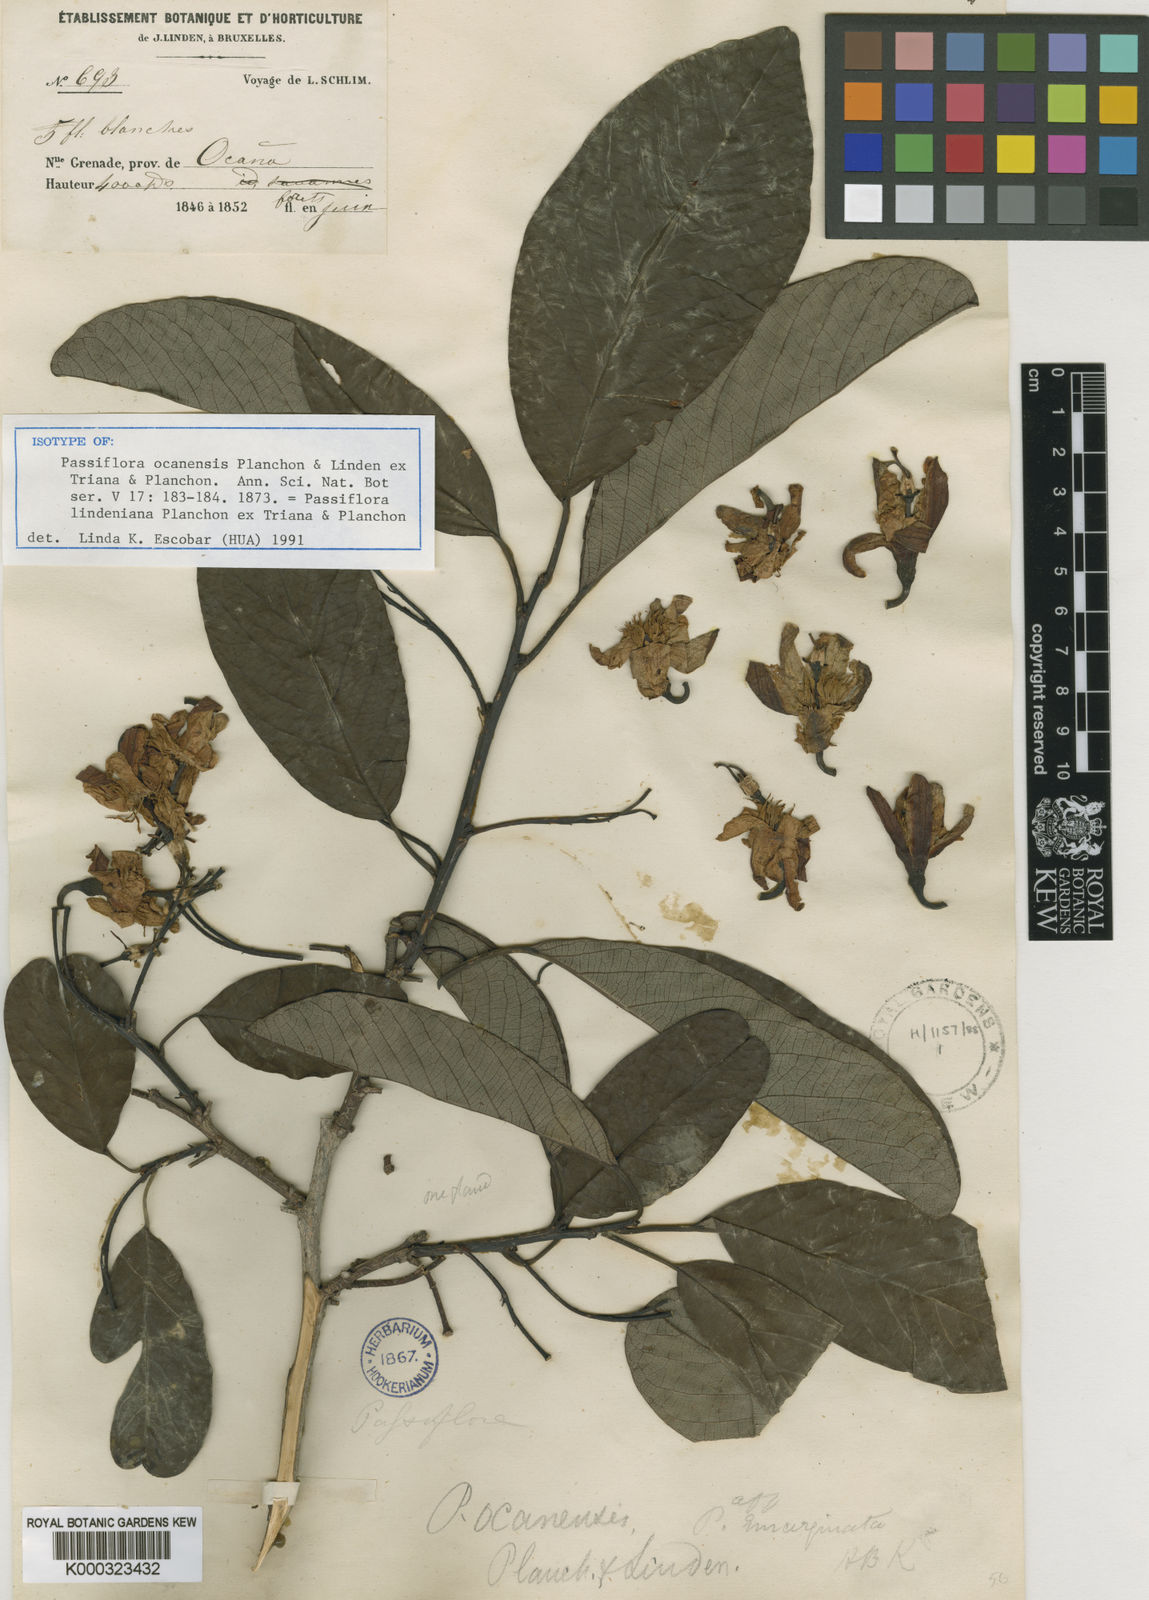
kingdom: Plantae
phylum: Tracheophyta
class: Magnoliopsida
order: Malpighiales
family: Passifloraceae
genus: Passiflora
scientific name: Passiflora
